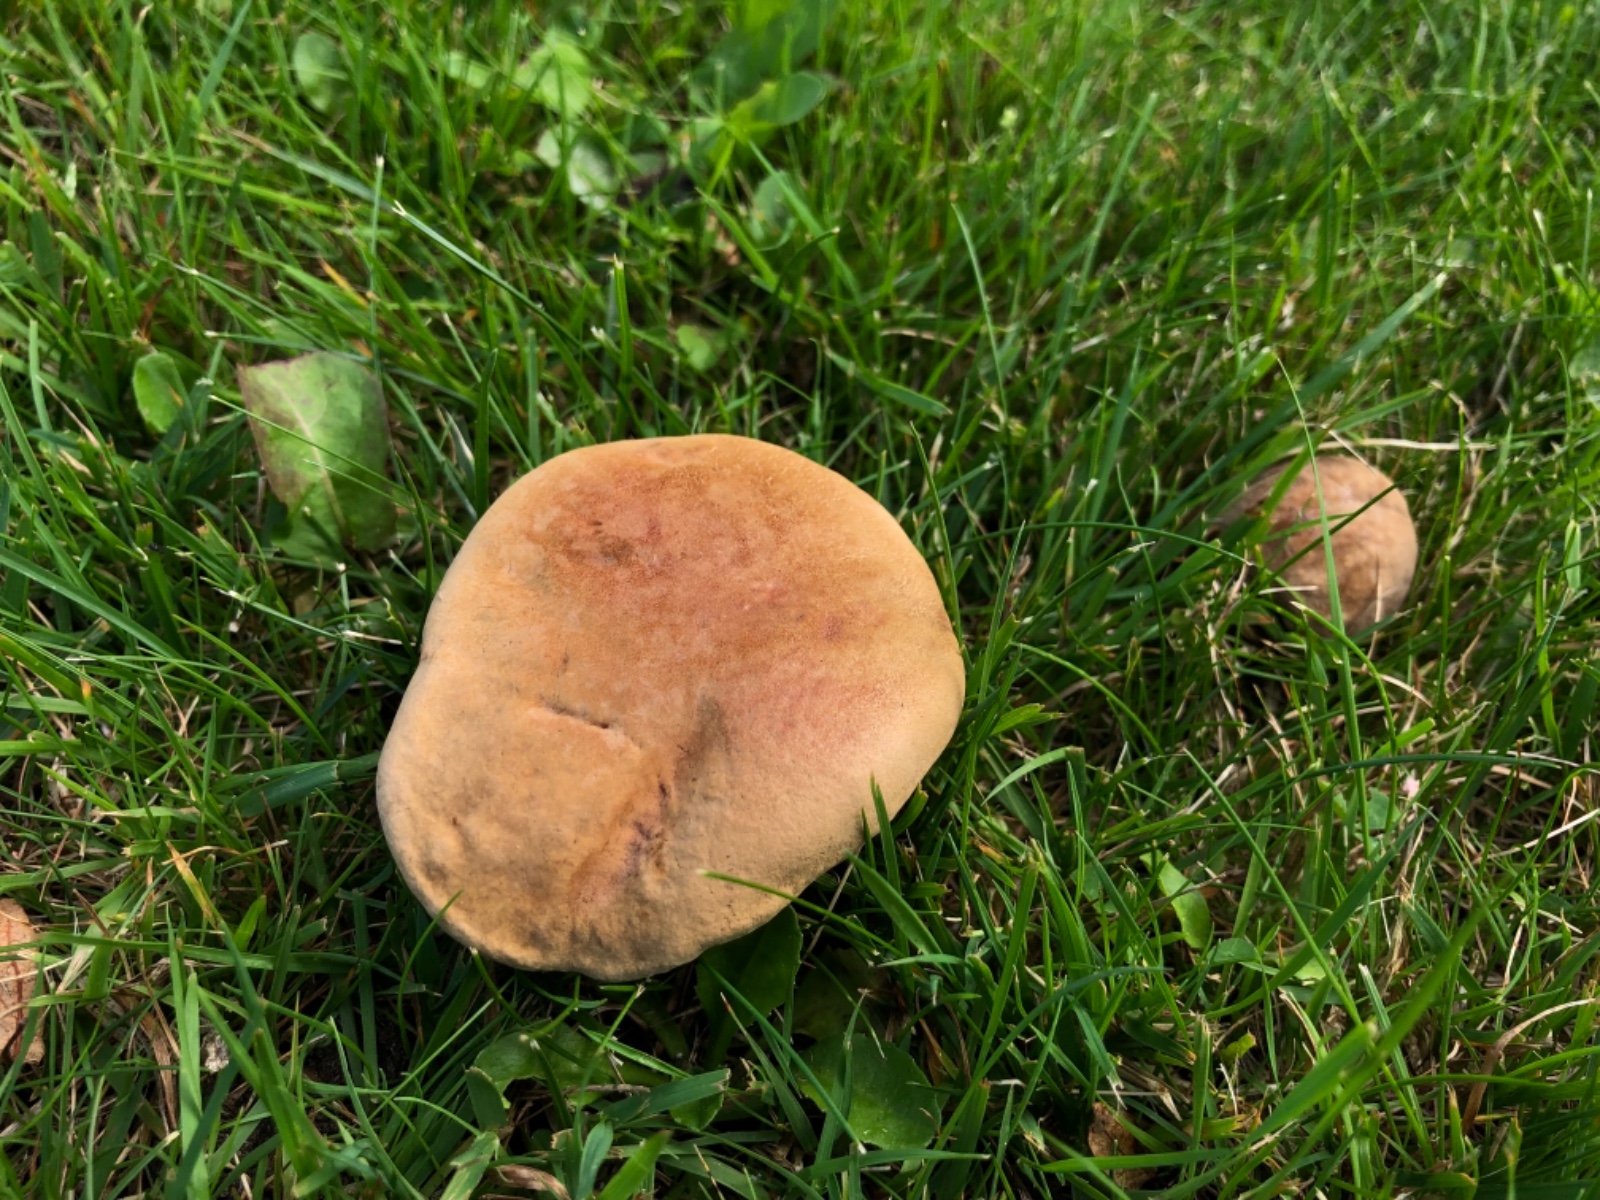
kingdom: Fungi
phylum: Basidiomycota
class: Agaricomycetes
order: Boletales
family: Boletaceae
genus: Hortiboletus
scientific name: Hortiboletus bubalinus
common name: aurora-rørhat
